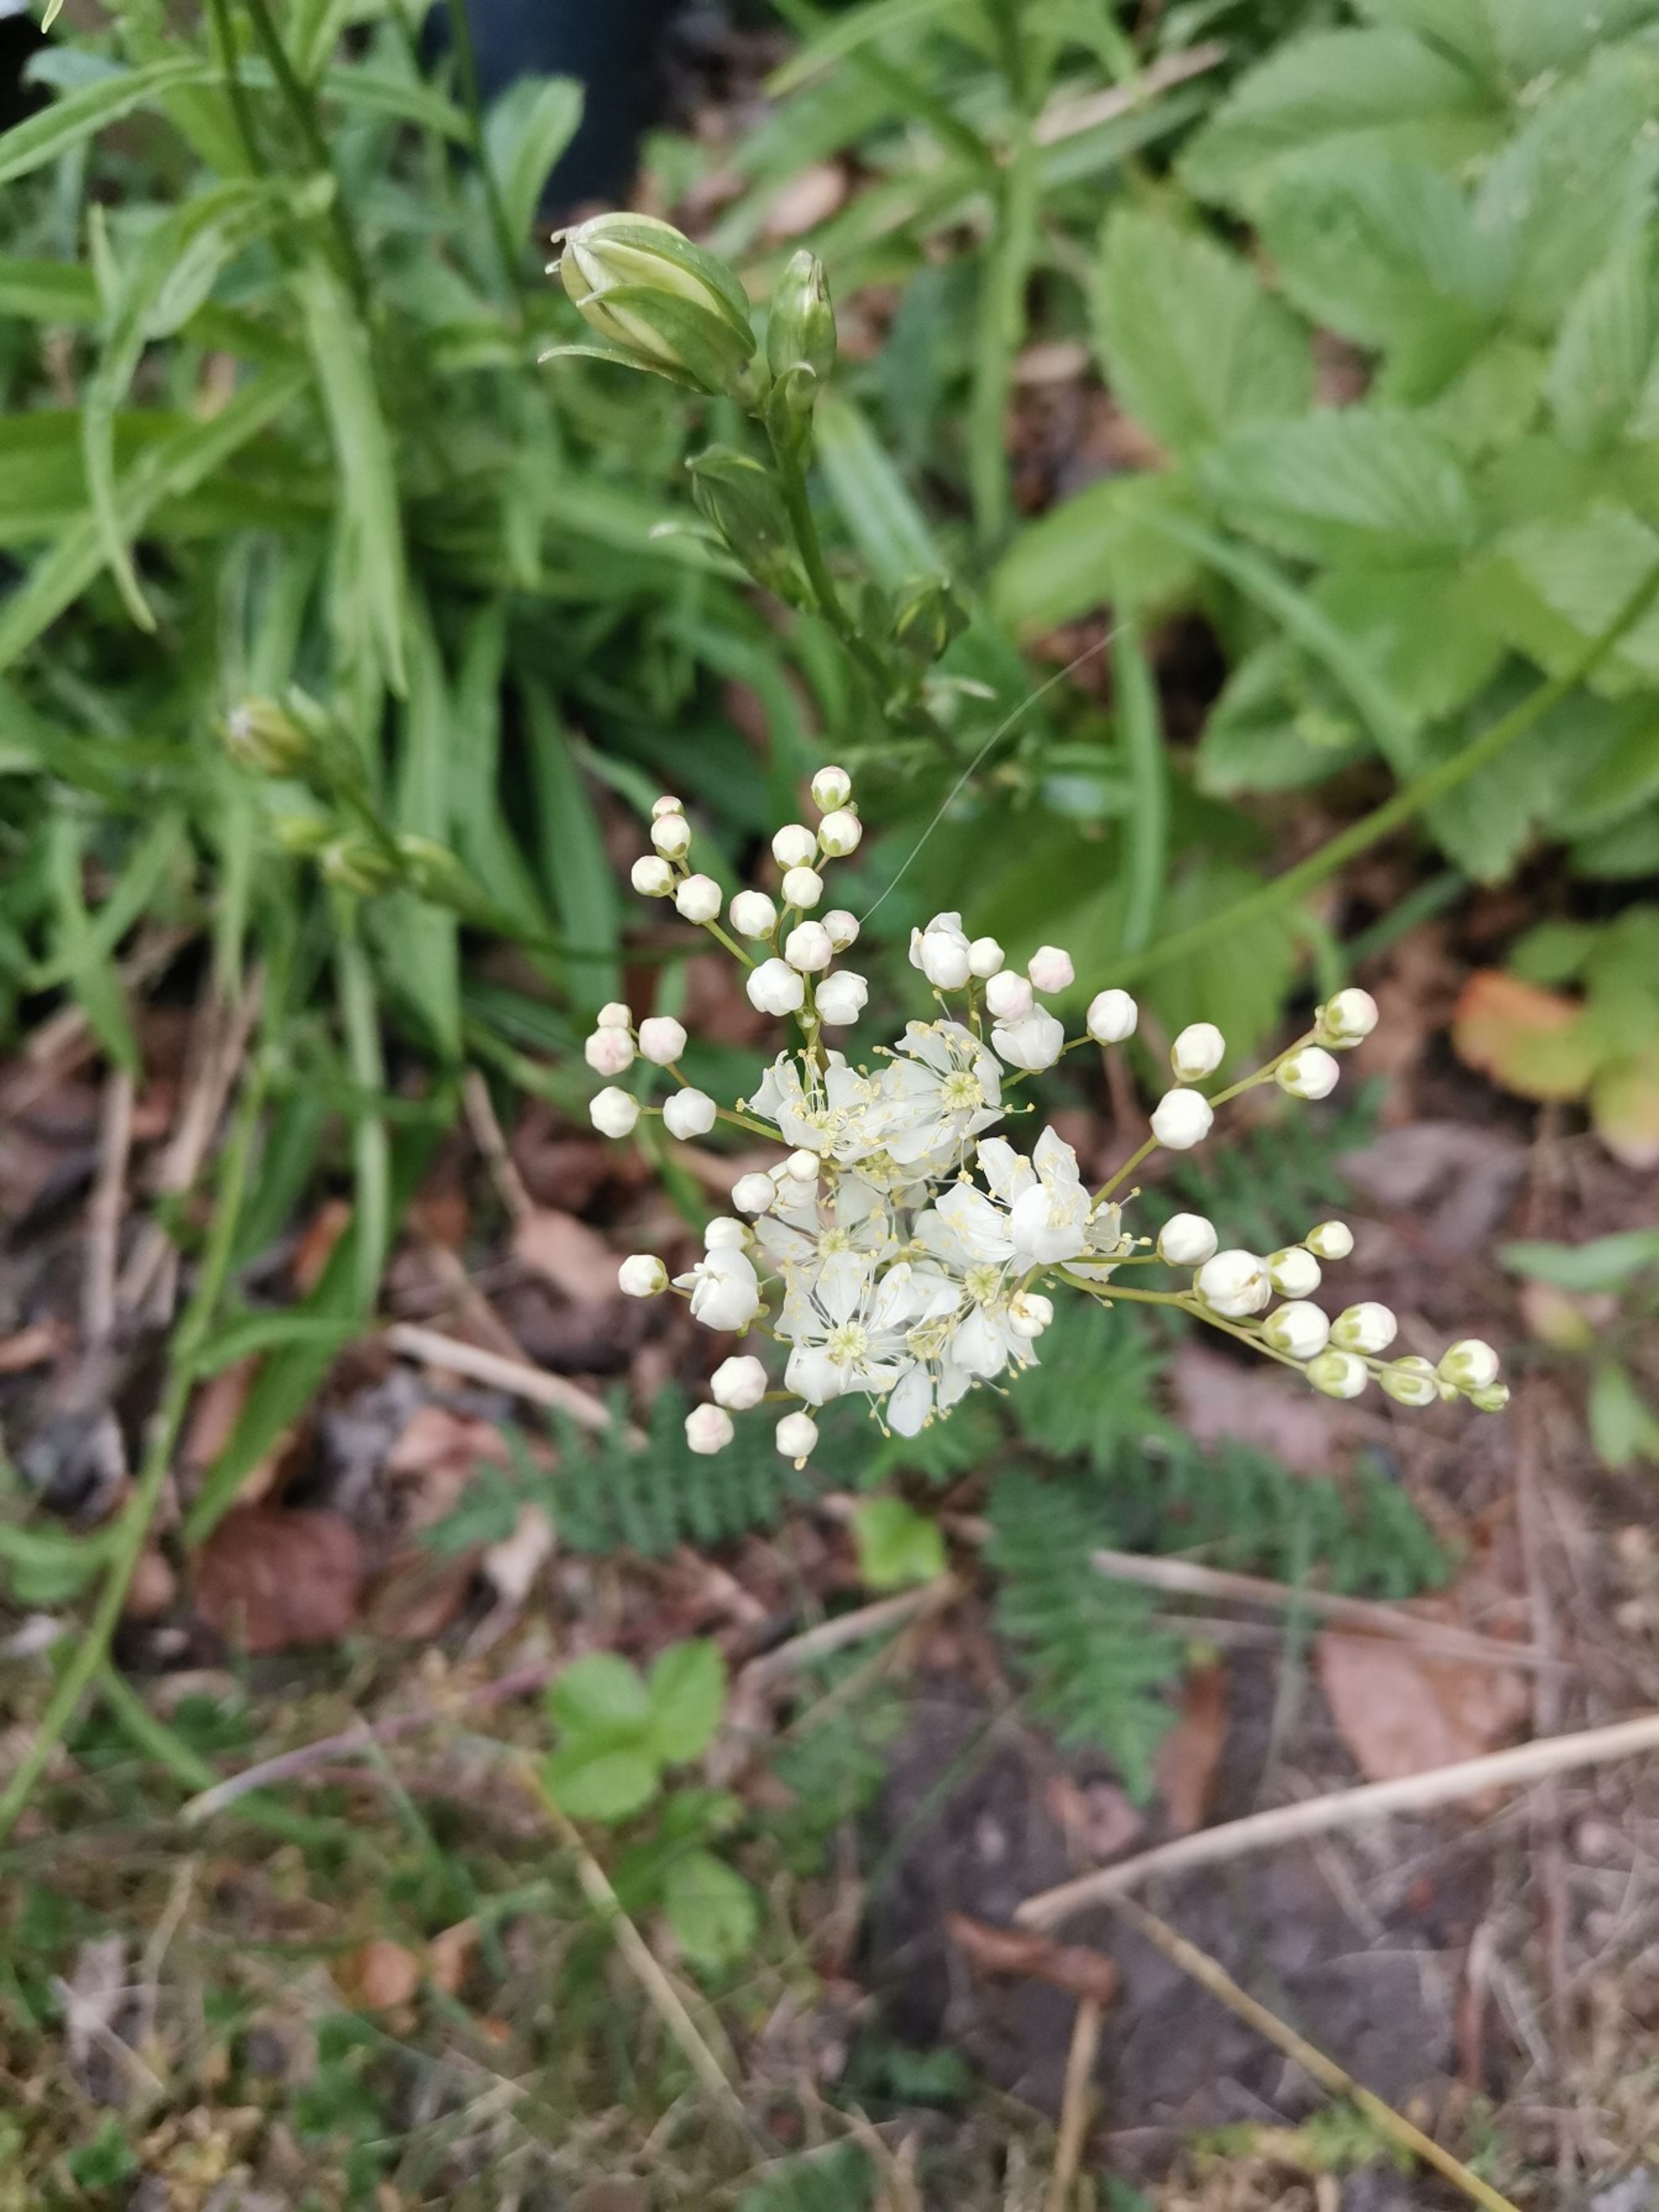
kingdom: Plantae
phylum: Tracheophyta
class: Magnoliopsida
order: Rosales
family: Rosaceae
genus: Filipendula
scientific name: Filipendula vulgaris
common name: Knoldet mjødurt
